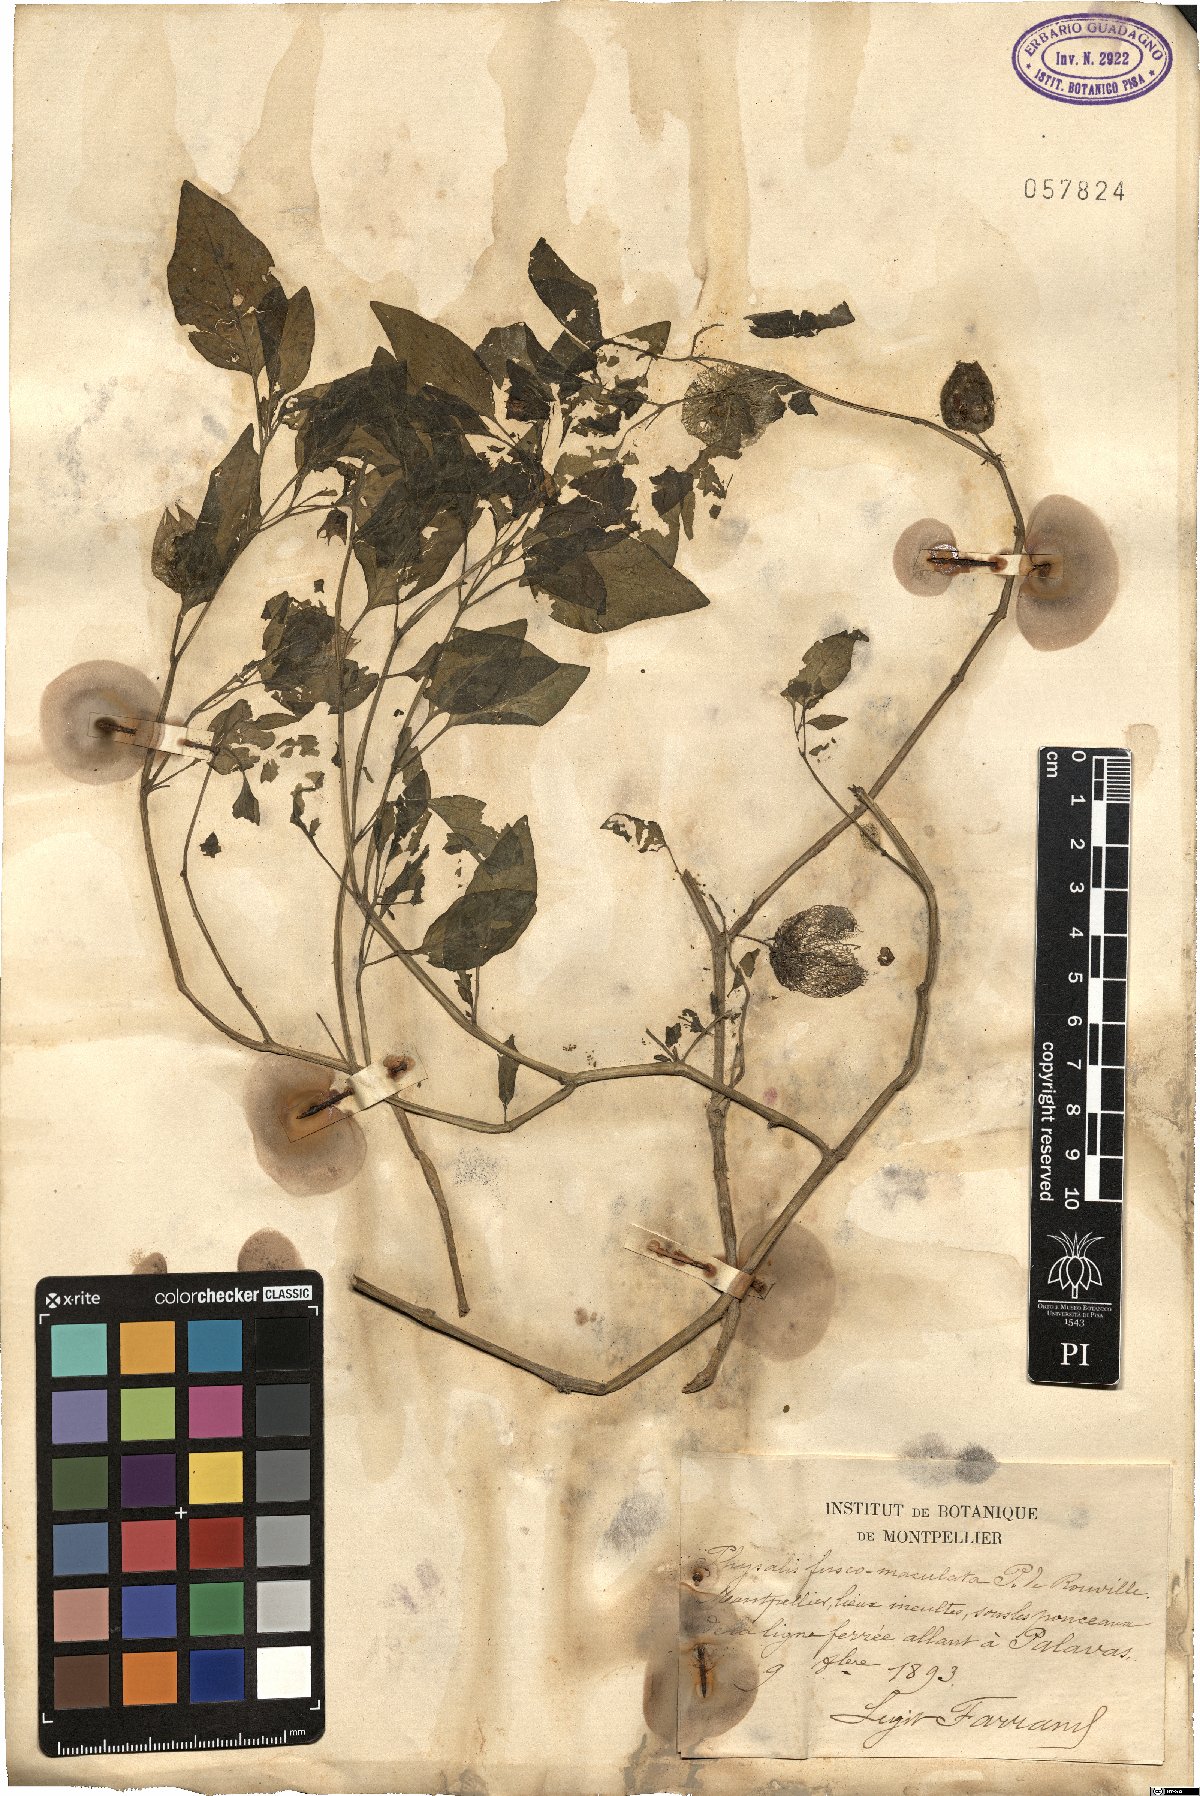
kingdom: Plantae
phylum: Tracheophyta
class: Magnoliopsida
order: Solanales
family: Solanaceae
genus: Physalis
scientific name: Physalis viscosa
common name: Stellate ground-cherry
